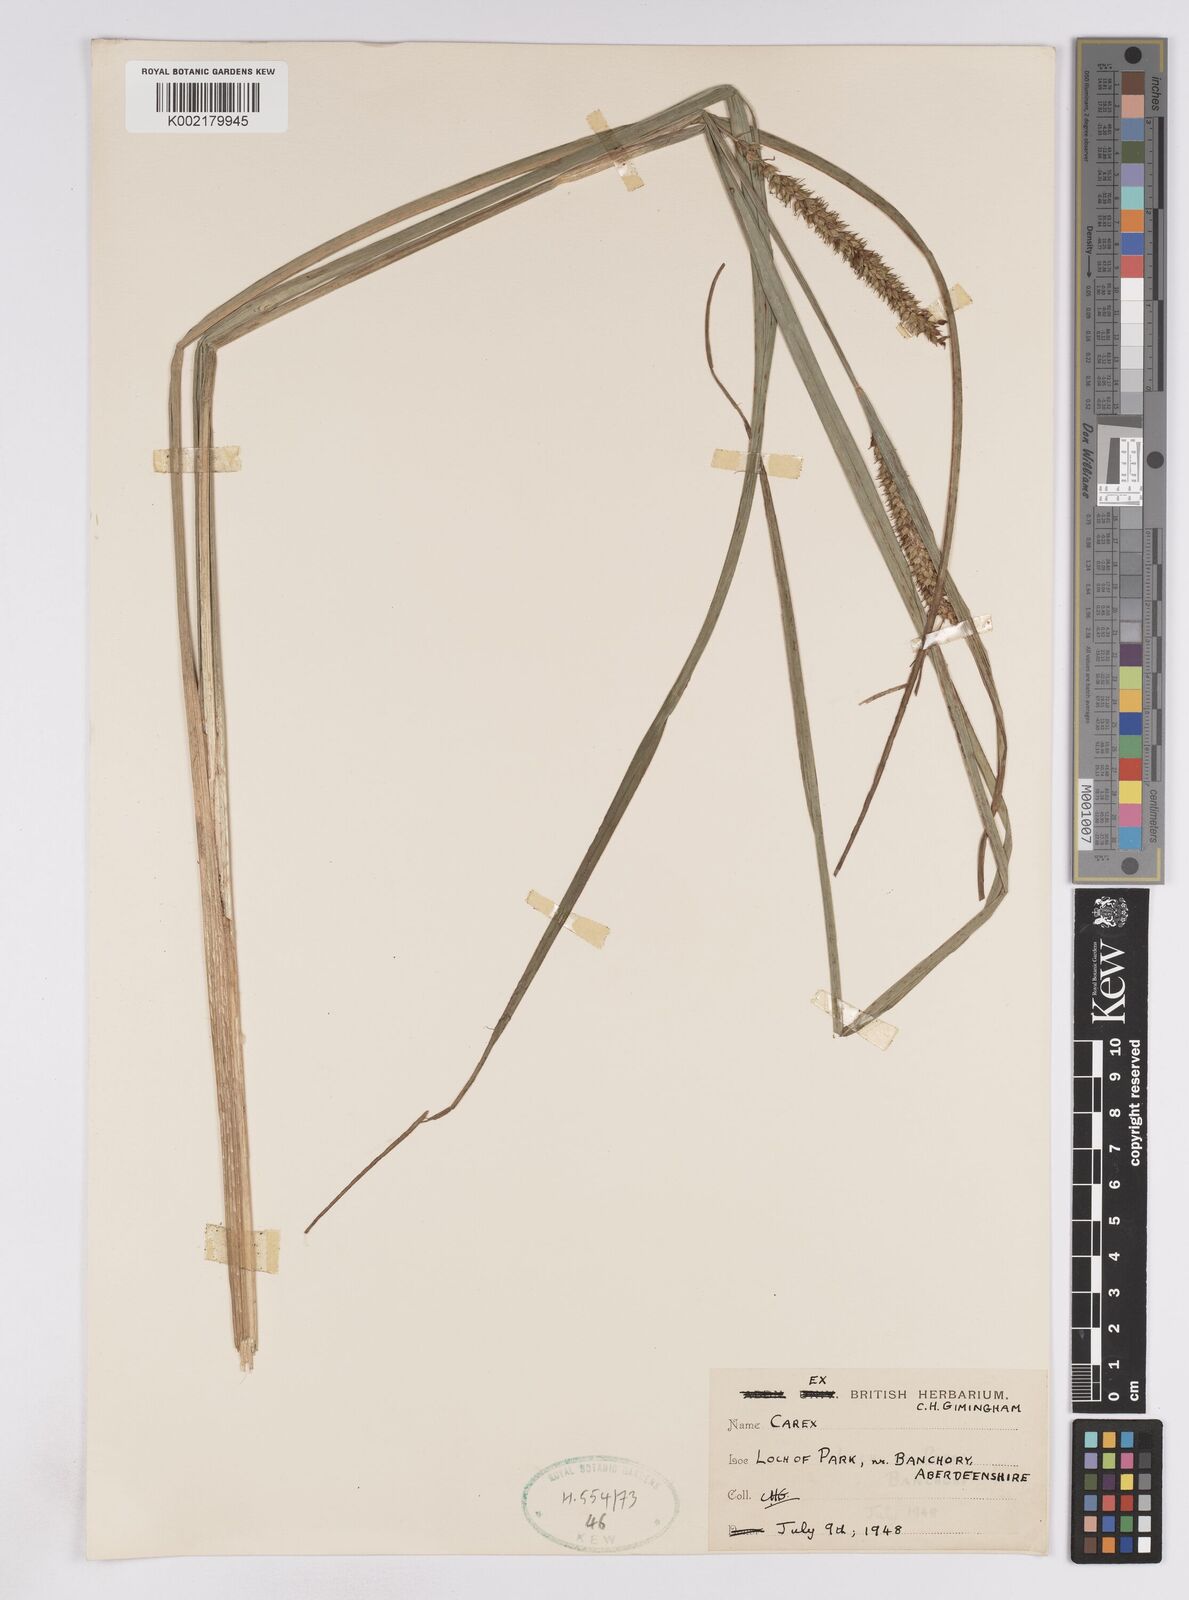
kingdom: Plantae
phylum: Tracheophyta
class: Liliopsida
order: Poales
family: Cyperaceae
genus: Carex
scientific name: Carex utriculata
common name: Beaked sedge
